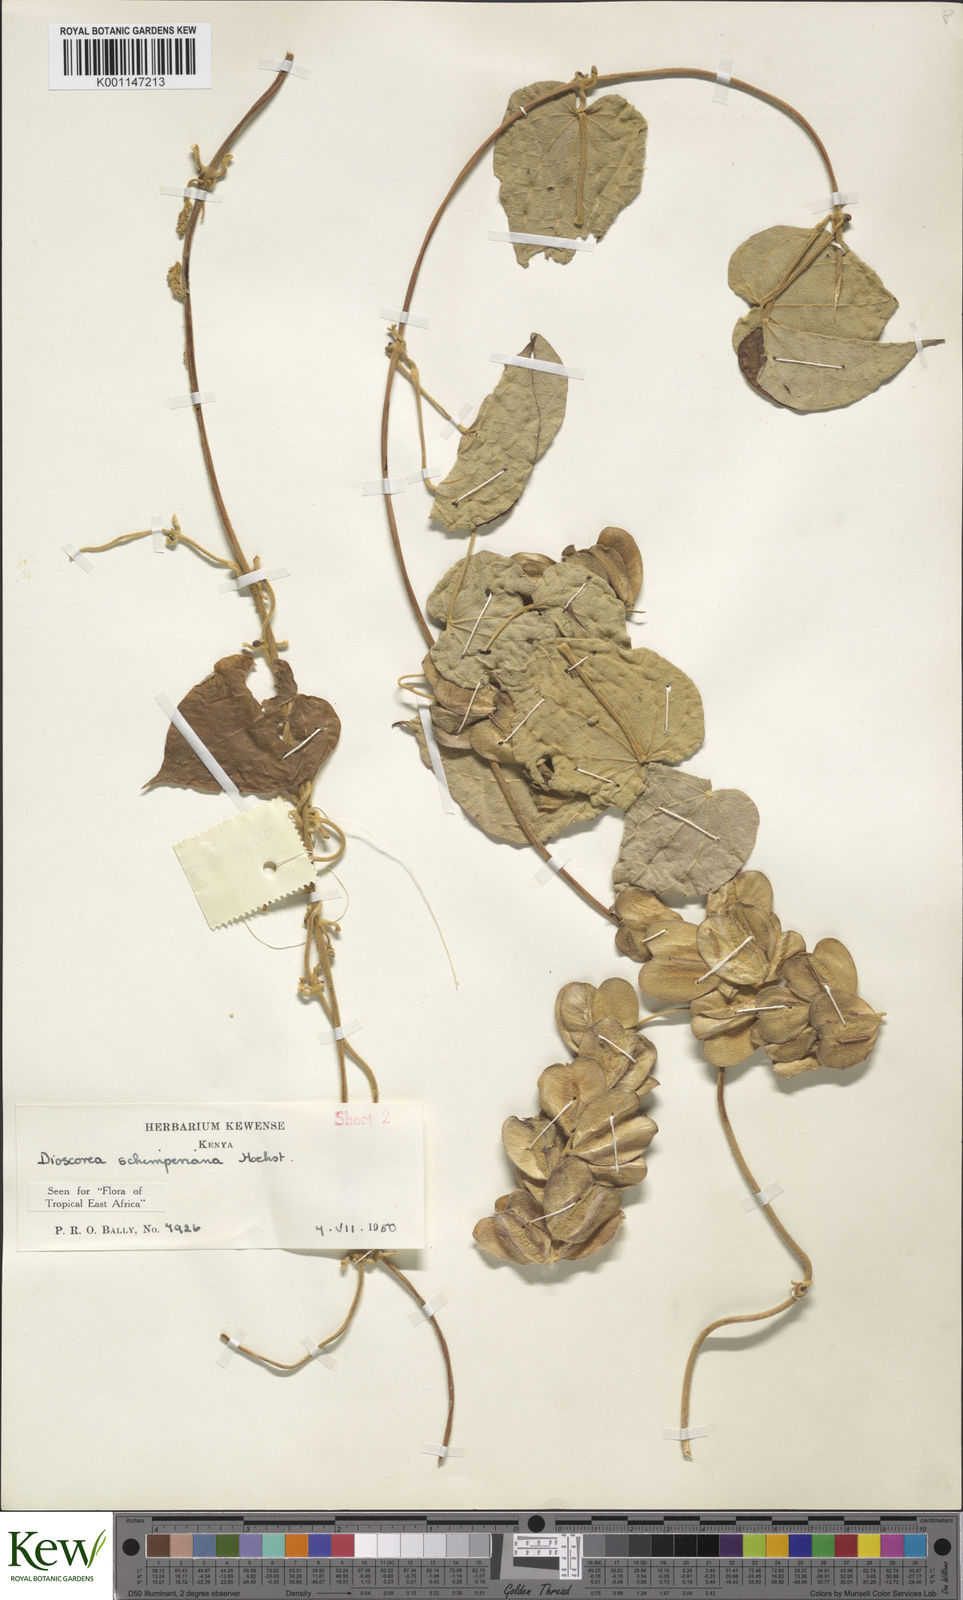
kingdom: Plantae
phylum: Tracheophyta
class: Liliopsida
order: Dioscoreales
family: Dioscoreaceae
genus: Dioscorea
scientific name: Dioscorea schimperiana
